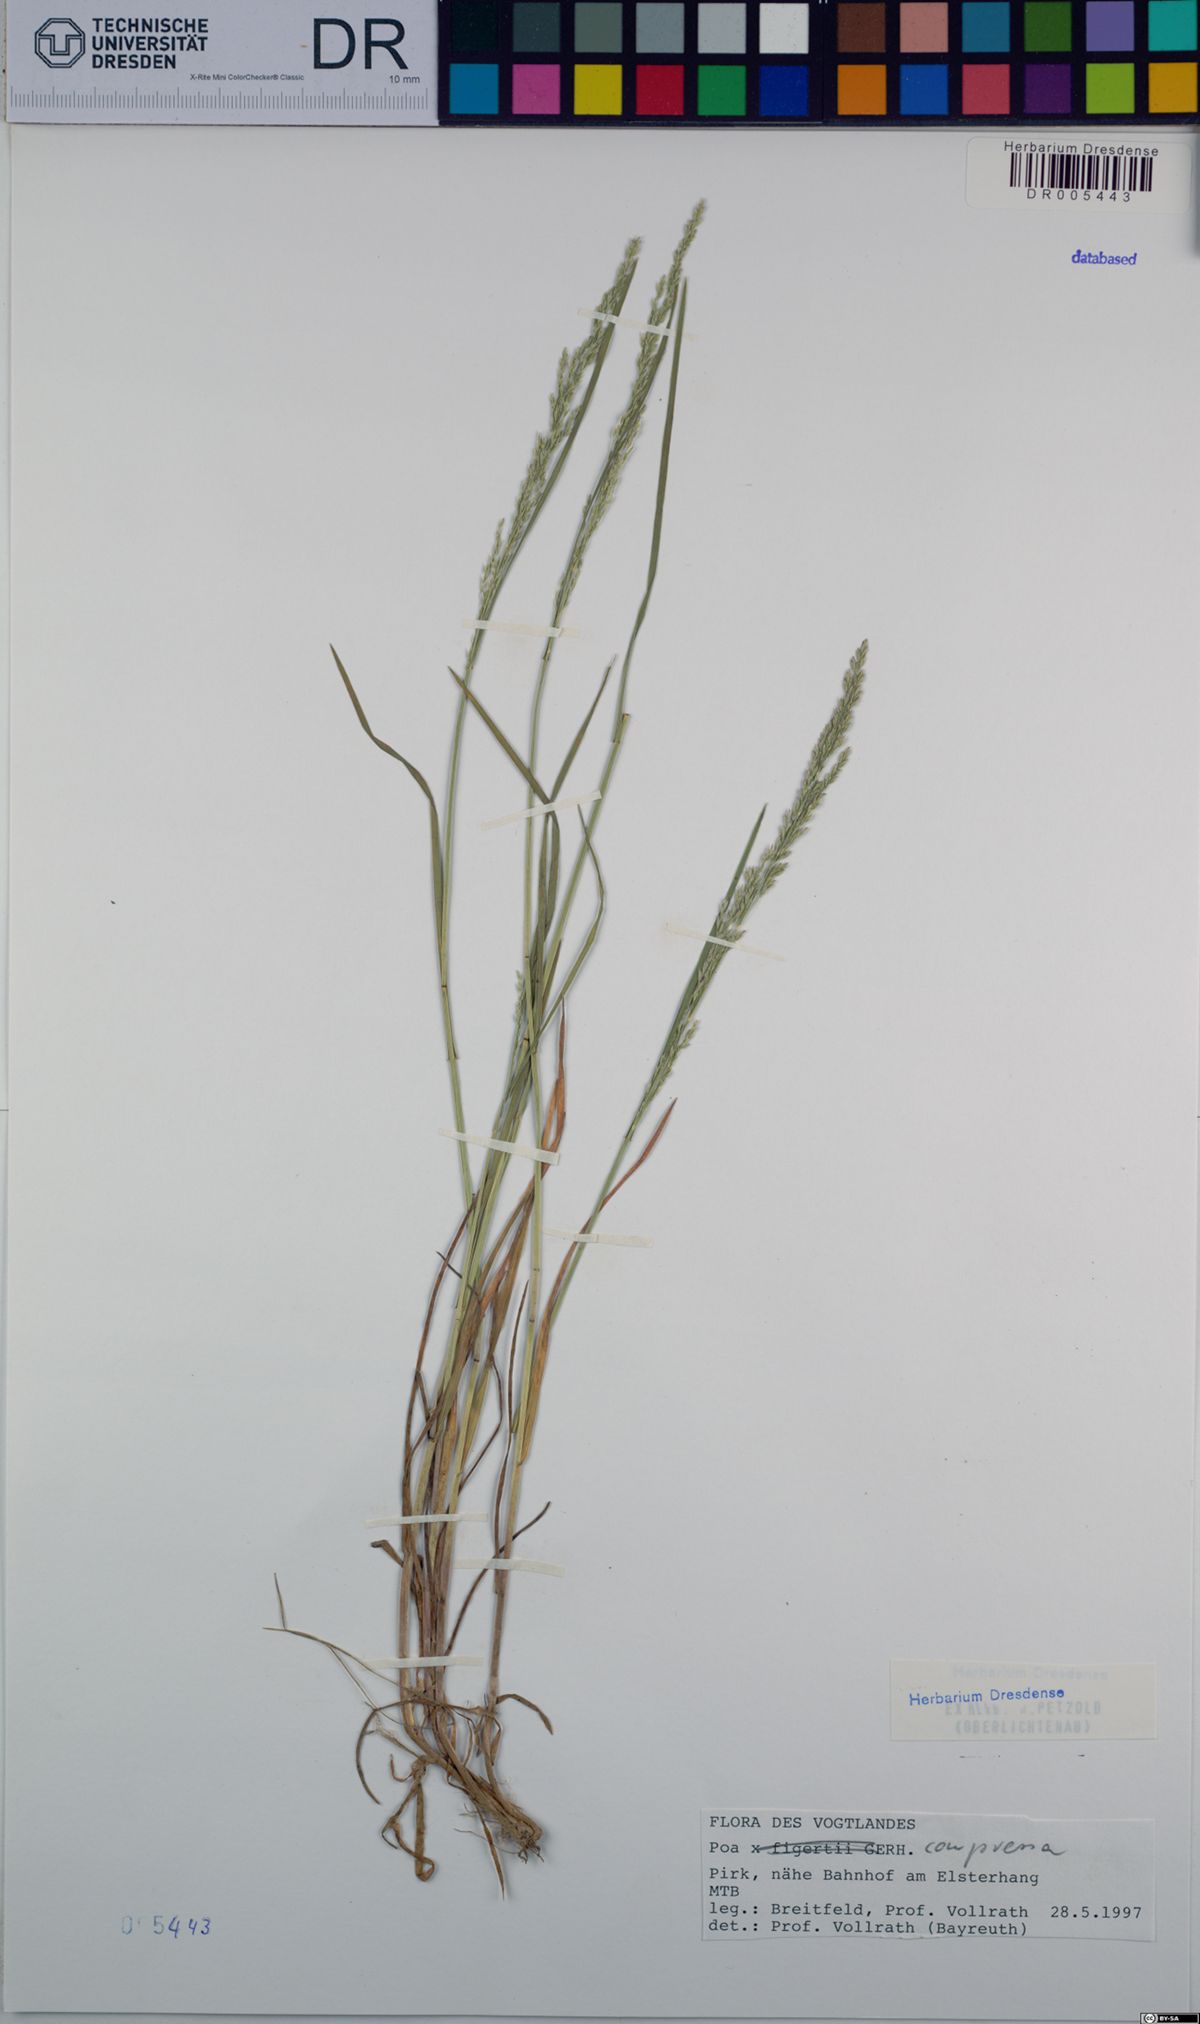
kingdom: Plantae
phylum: Tracheophyta
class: Liliopsida
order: Poales
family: Poaceae
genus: Poa
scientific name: Poa compressa
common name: Canada bluegrass
